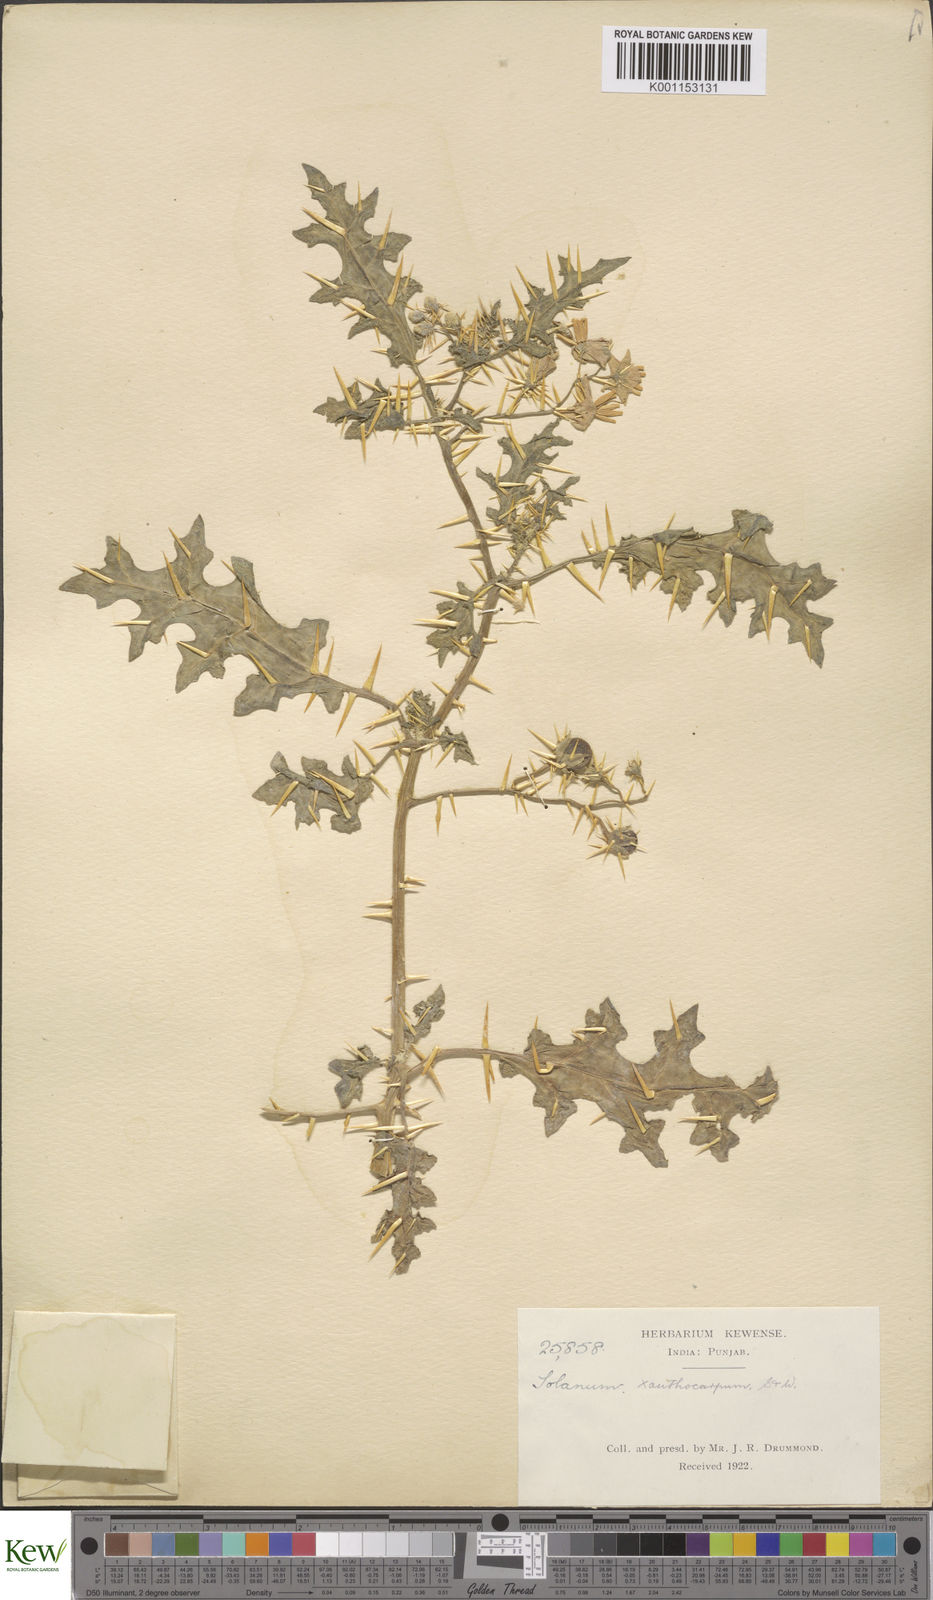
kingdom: Plantae
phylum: Tracheophyta
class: Magnoliopsida
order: Solanales
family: Solanaceae
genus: Solanum
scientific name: Solanum virginianum
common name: Surattense nightshade
